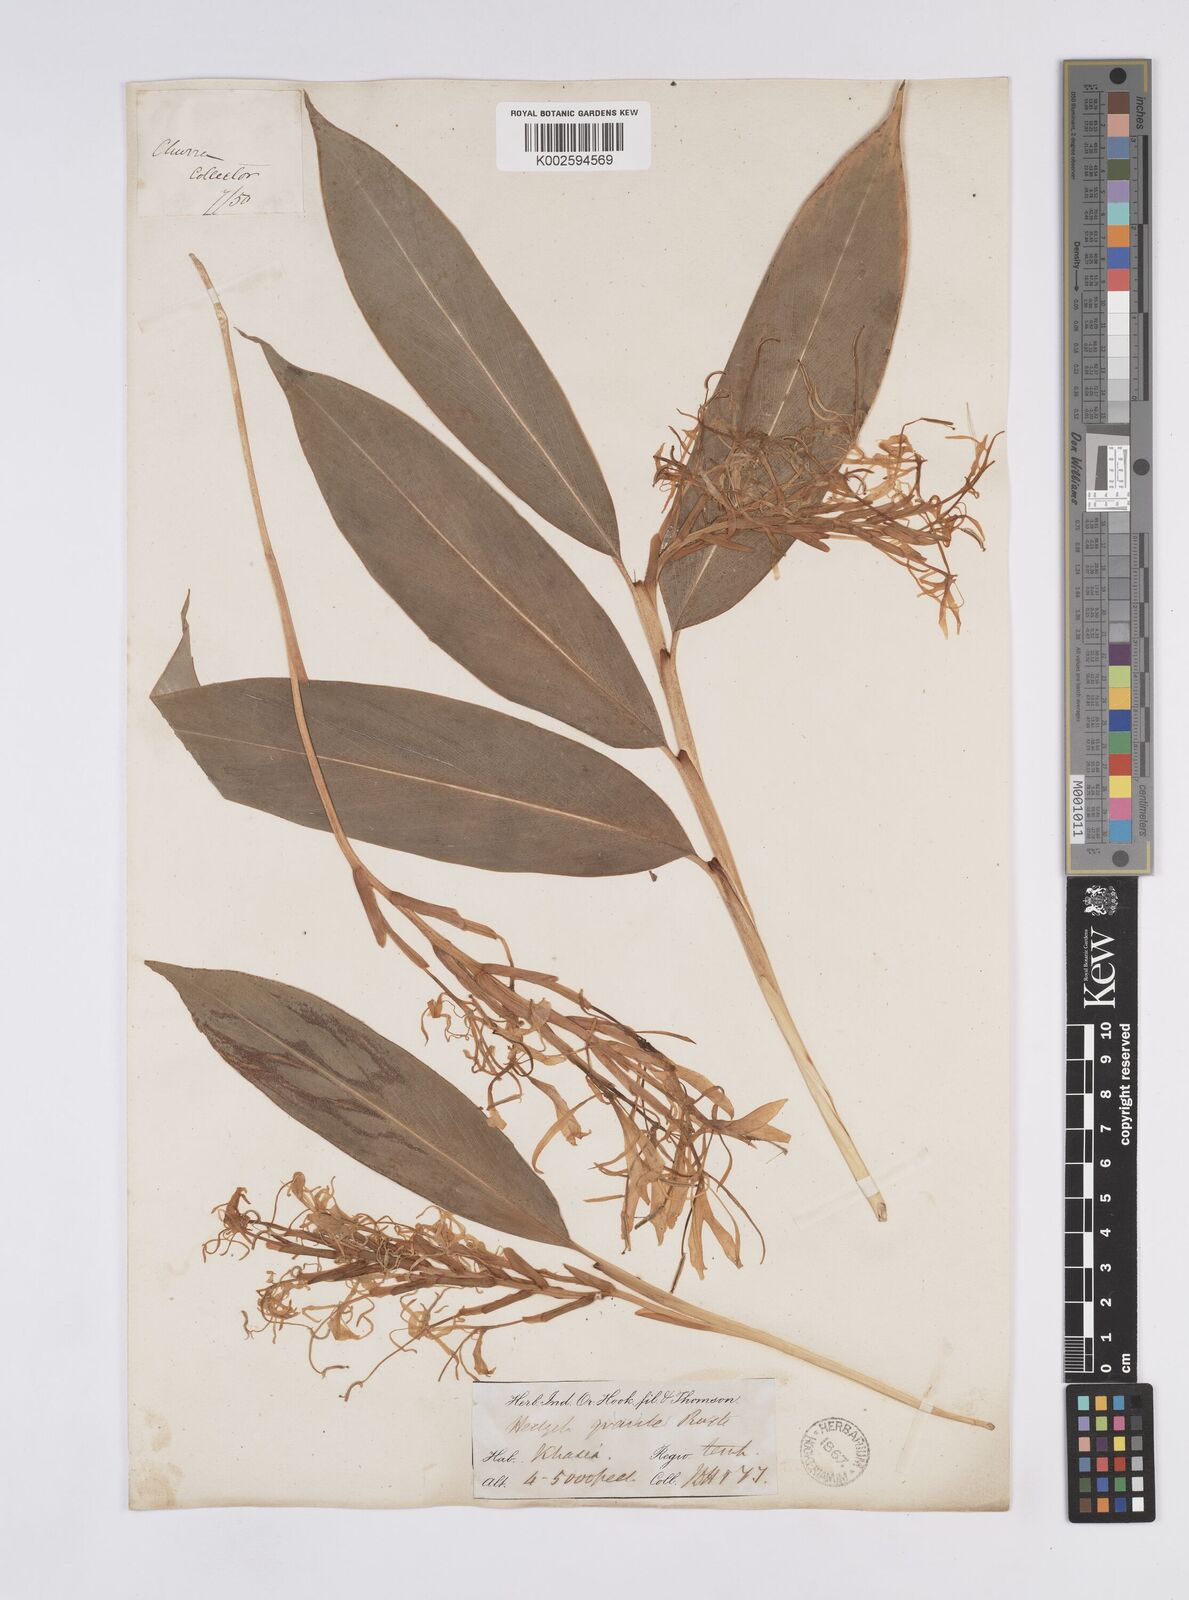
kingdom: Plantae
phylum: Tracheophyta
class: Liliopsida
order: Zingiberales
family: Zingiberaceae
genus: Hedychium
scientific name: Hedychium griffithianum
